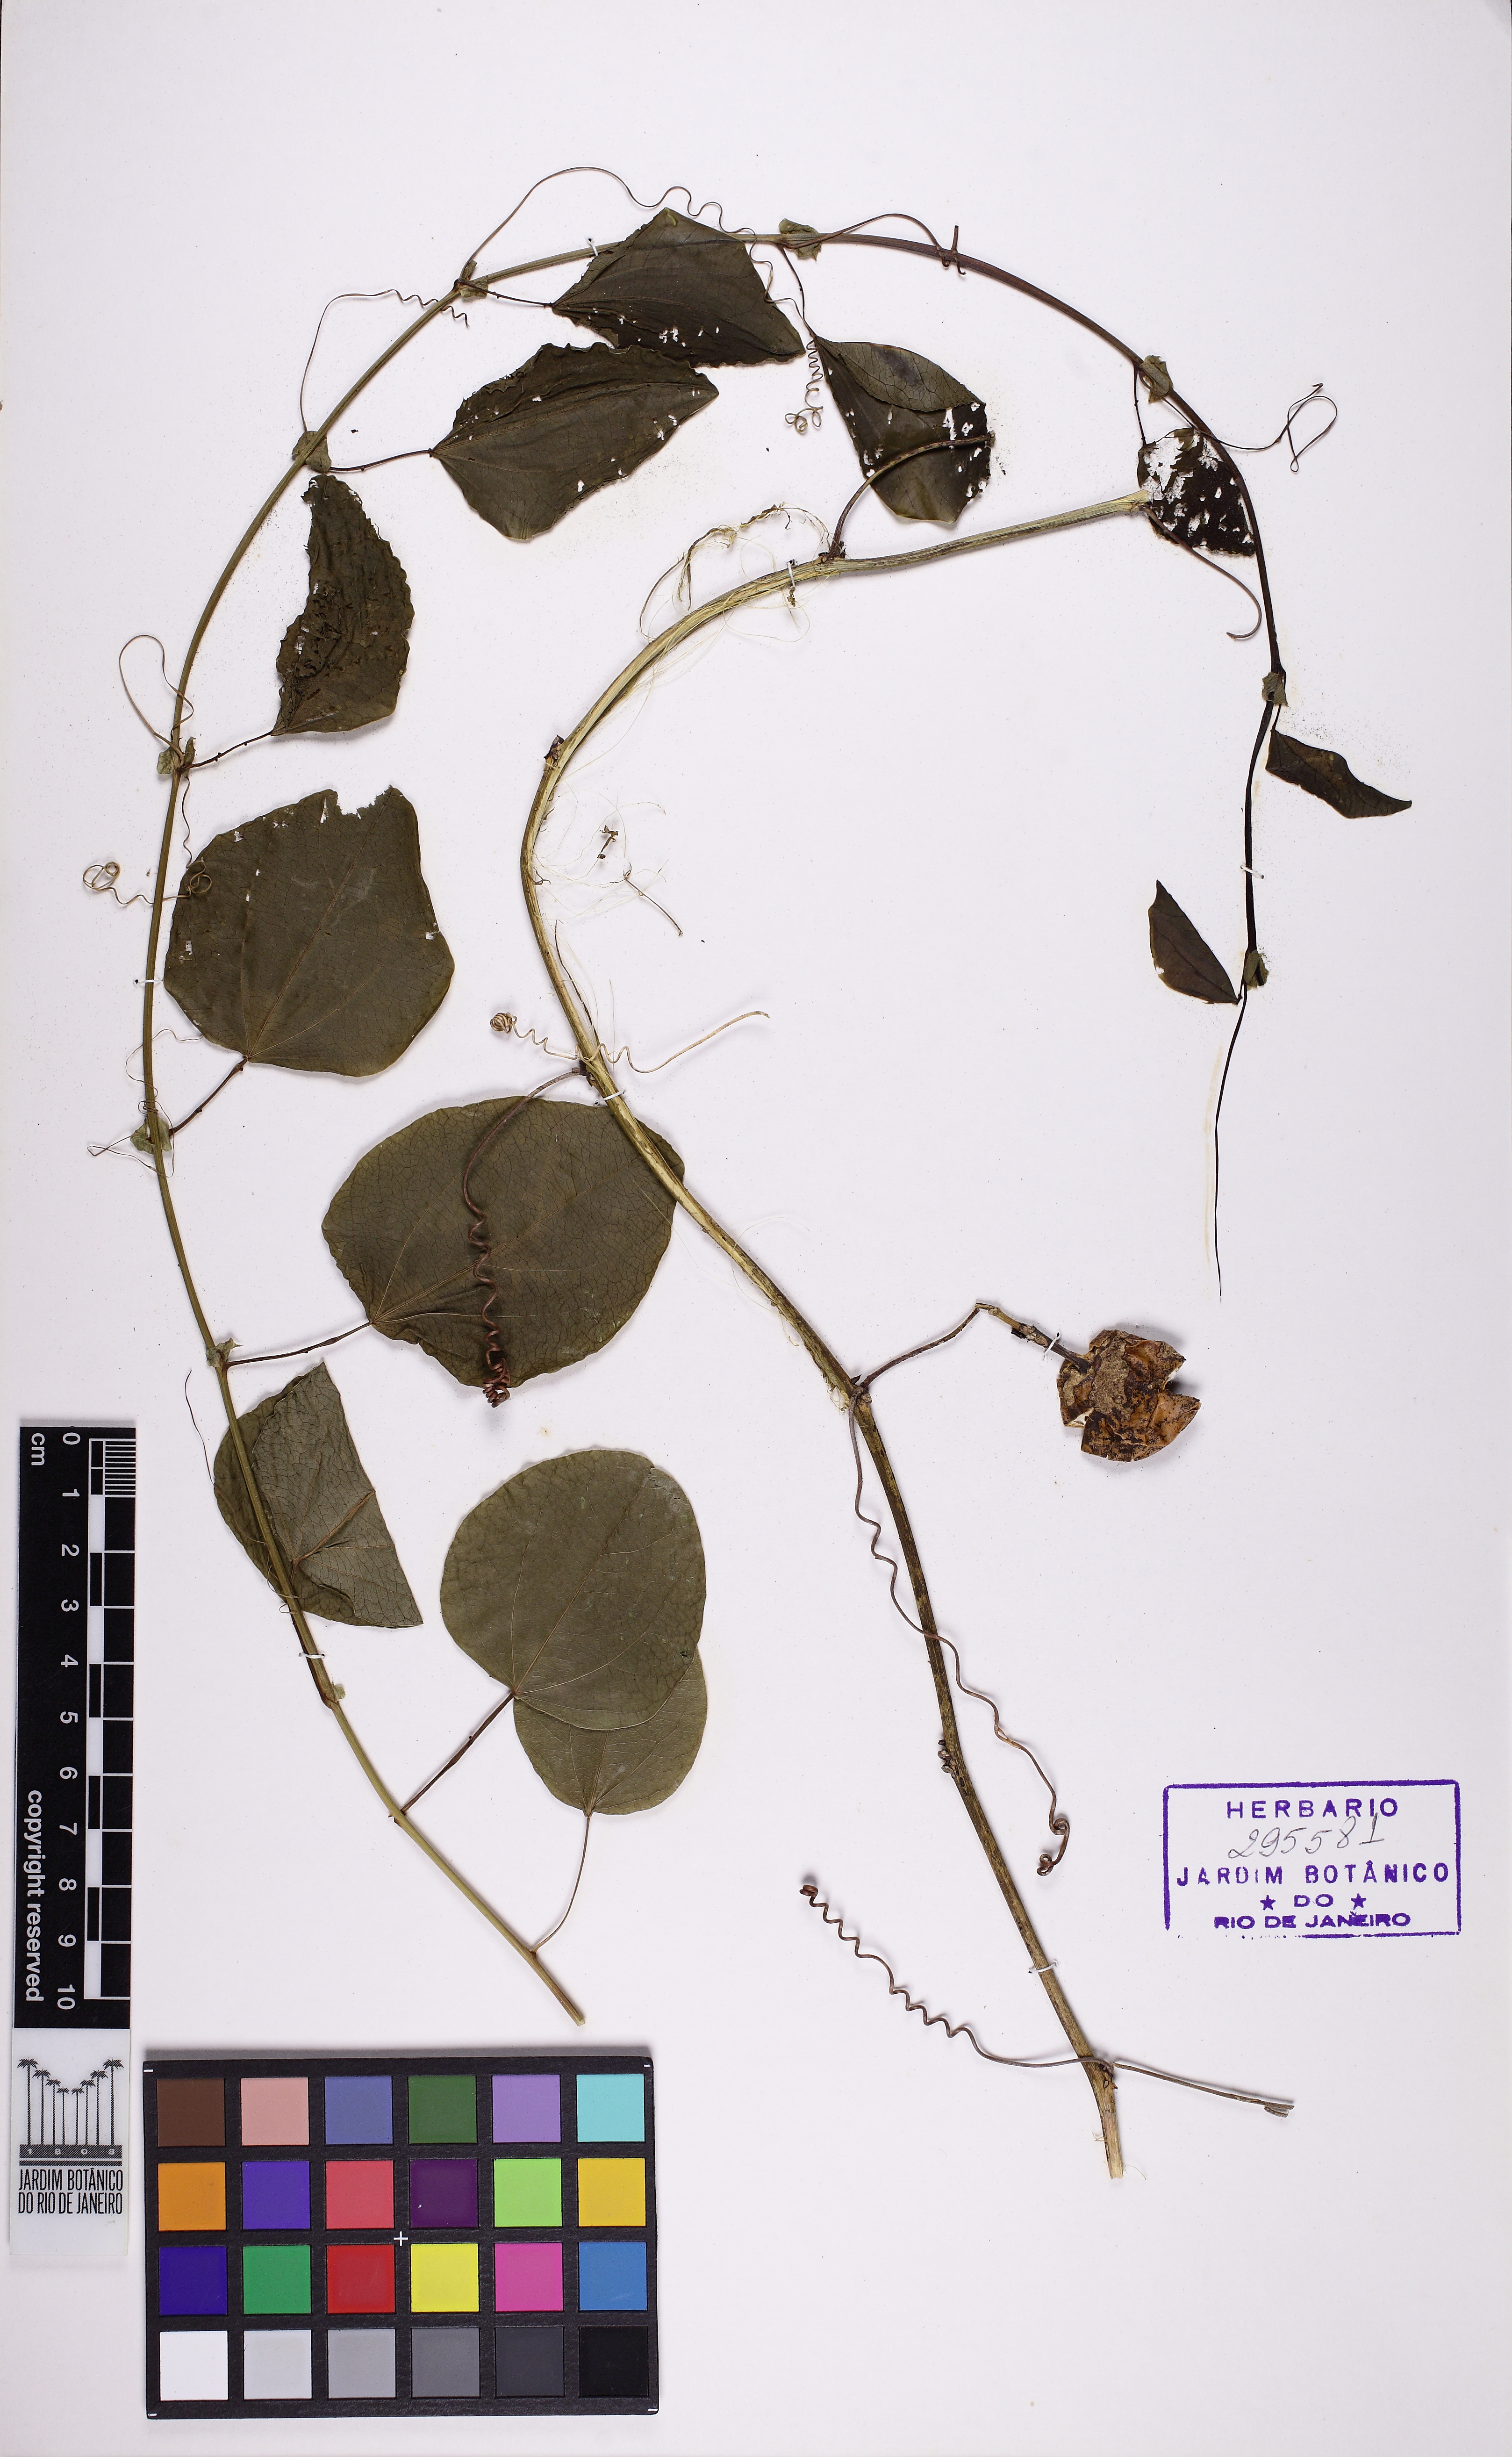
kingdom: Plantae
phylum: Tracheophyta
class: Magnoliopsida
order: Malpighiales
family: Passifloraceae
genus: Passiflora
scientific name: Passiflora actinia
